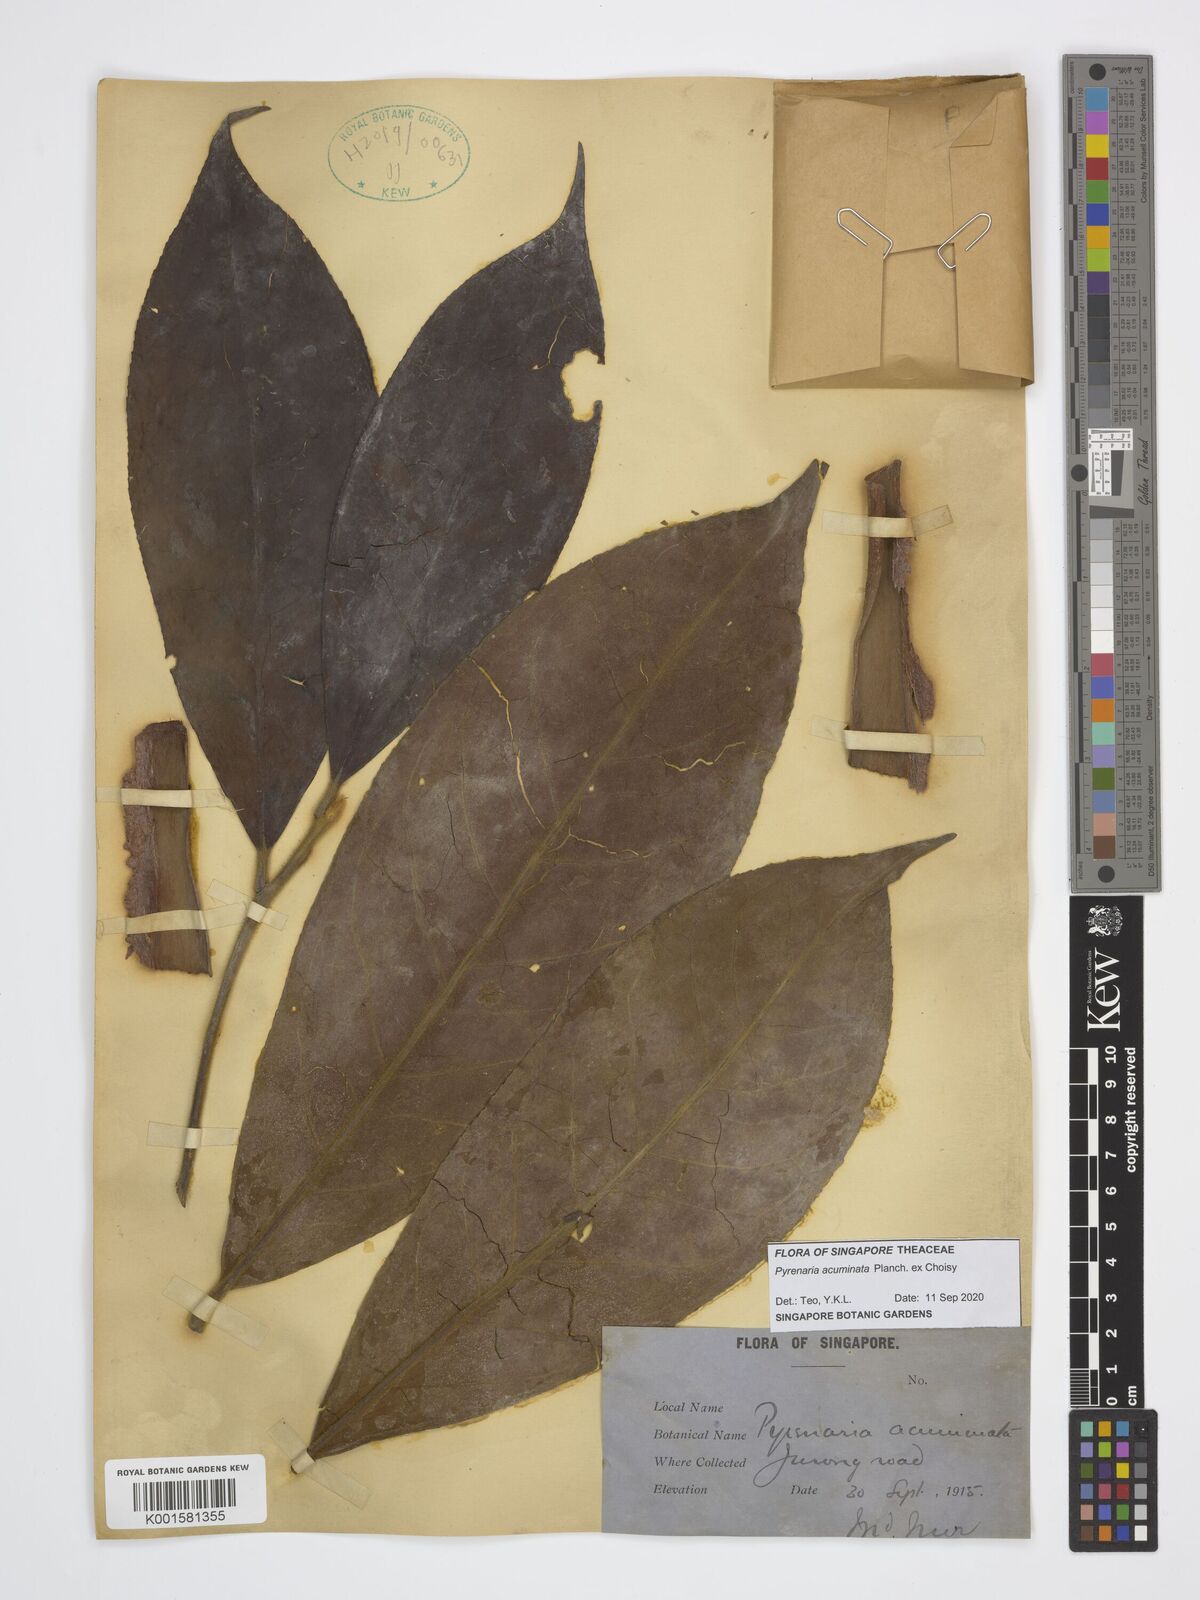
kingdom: Plantae
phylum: Tracheophyta
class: Magnoliopsida
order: Ericales
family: Theaceae
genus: Pyrenaria
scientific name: Pyrenaria acuminata
